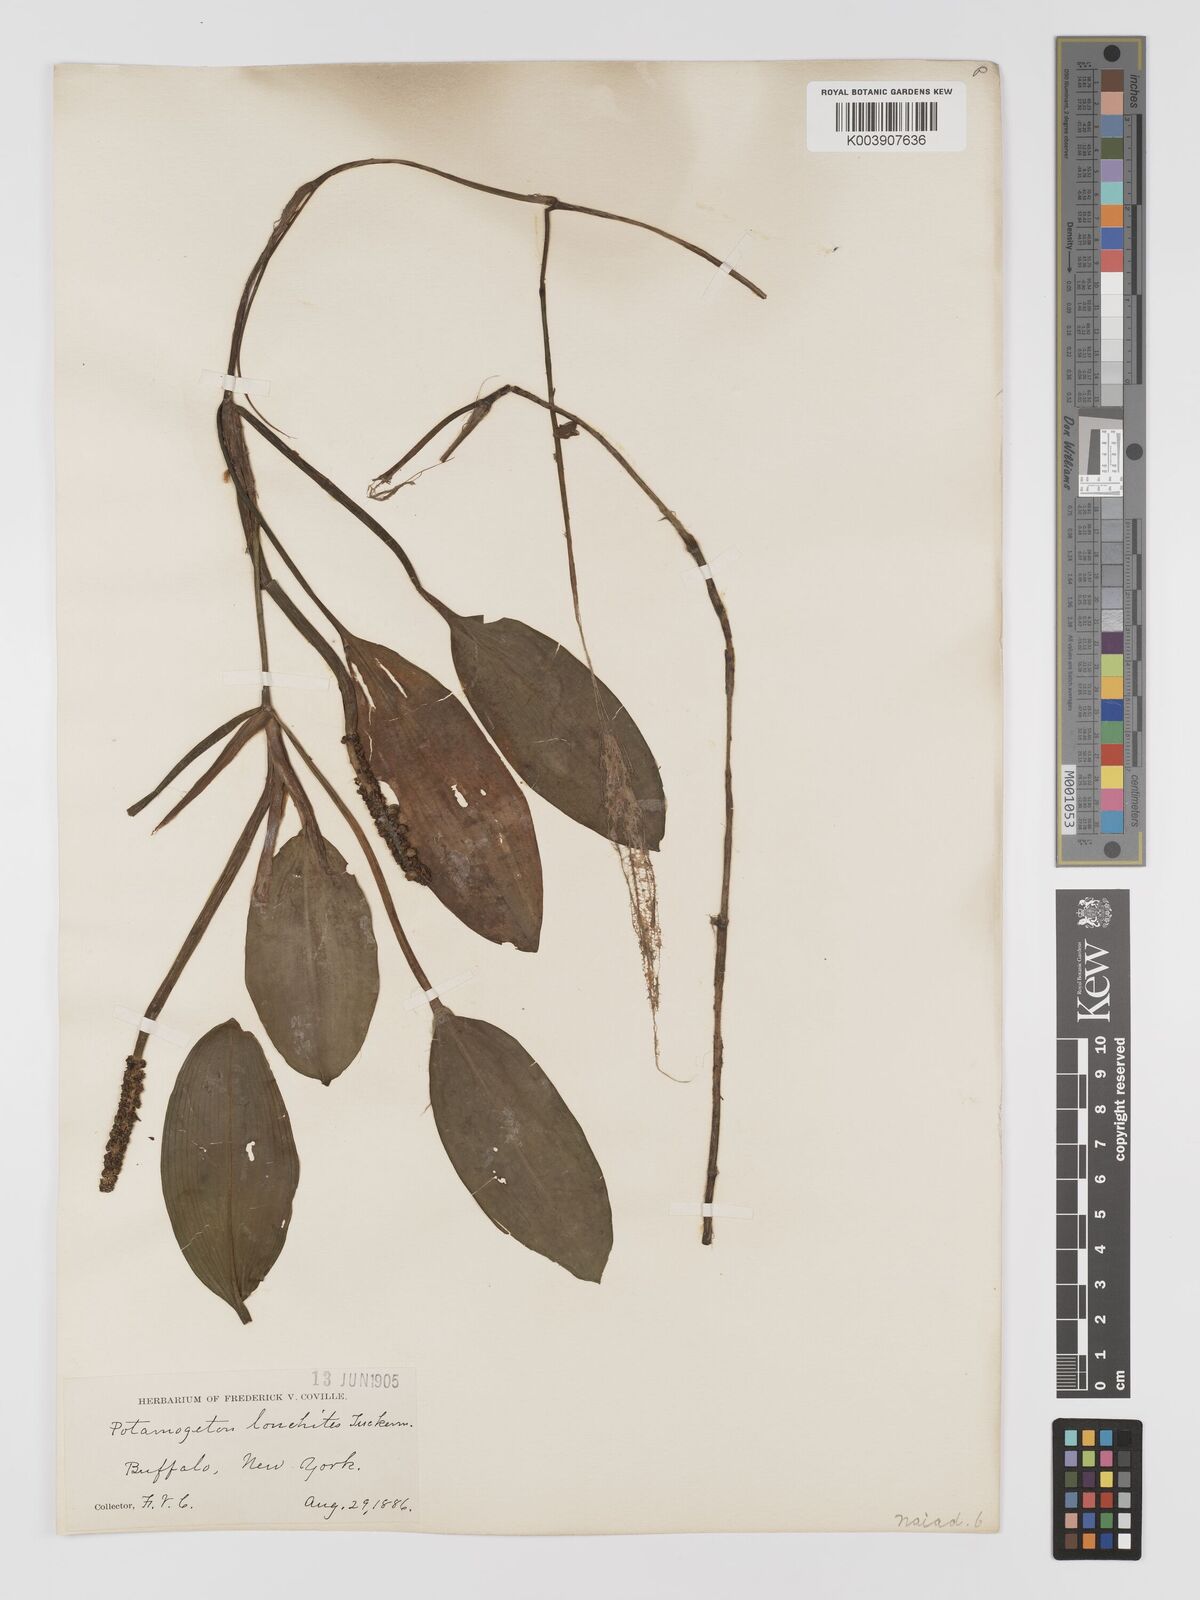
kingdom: Plantae
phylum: Tracheophyta
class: Liliopsida
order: Alismatales
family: Potamogetonaceae
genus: Potamogeton
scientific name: Potamogeton nodosus
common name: Loddon pondweed
